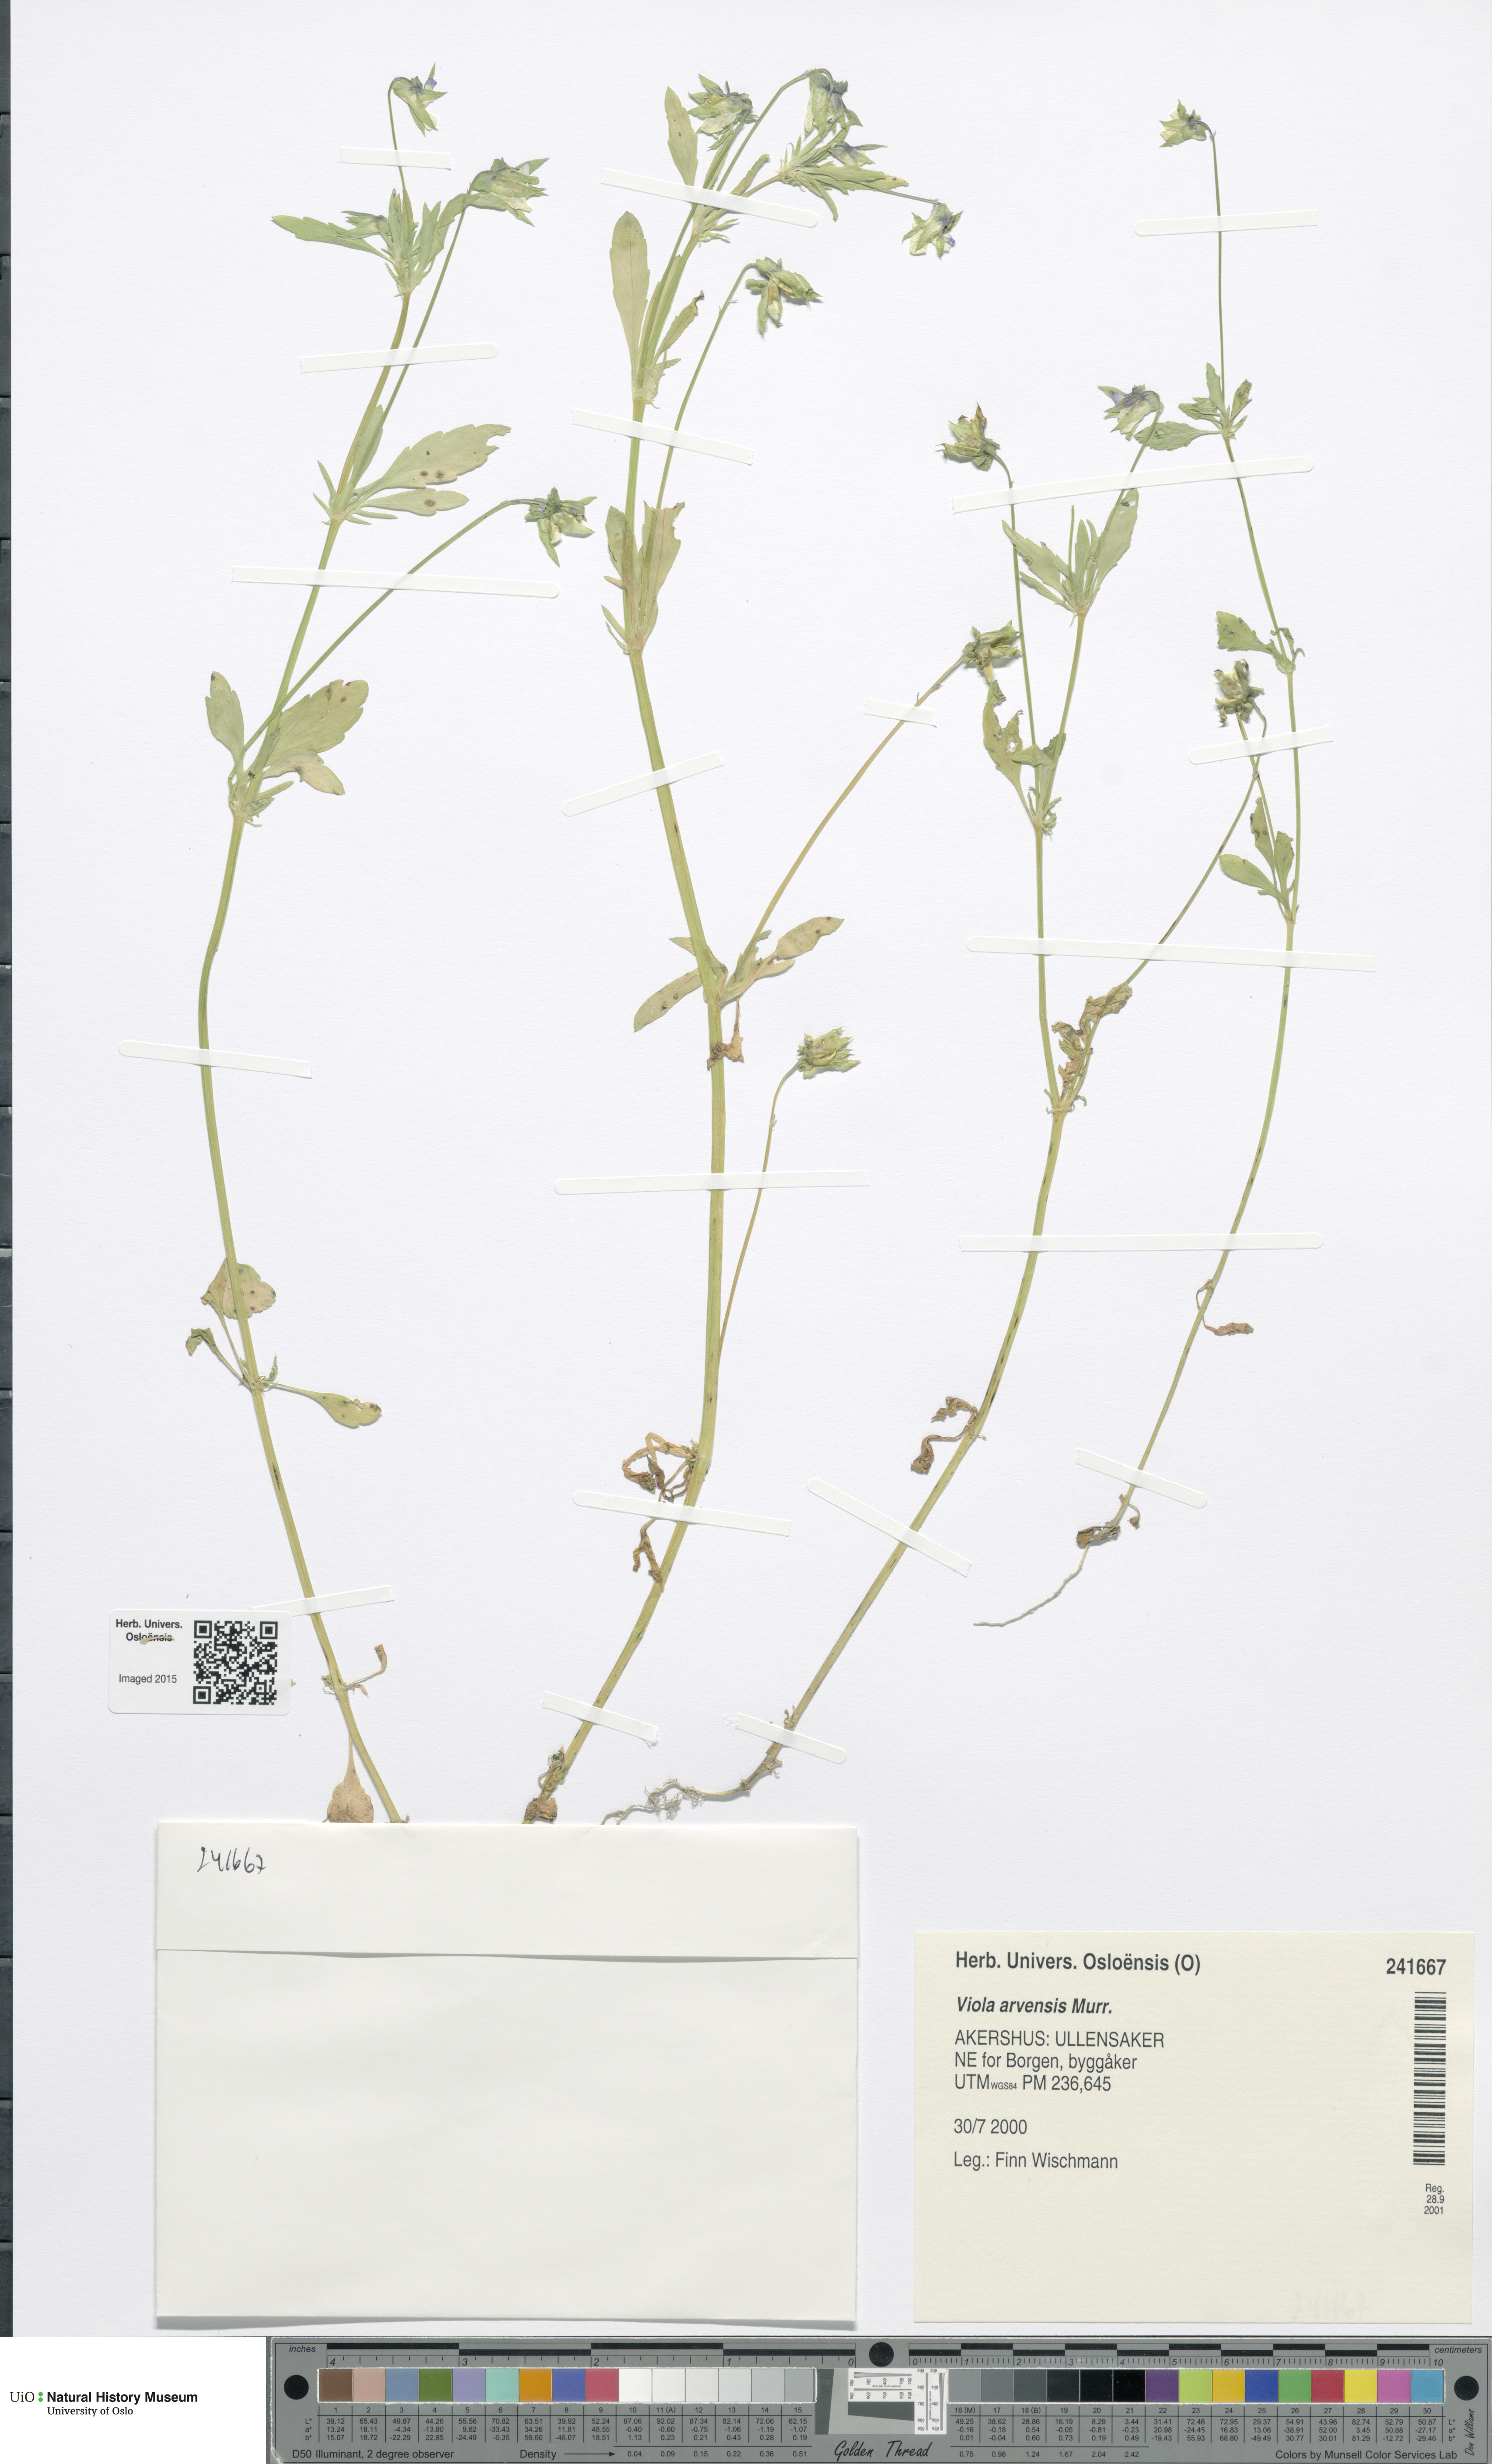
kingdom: Plantae
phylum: Tracheophyta
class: Magnoliopsida
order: Malpighiales
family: Violaceae
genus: Viola
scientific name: Viola arvensis
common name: Field pansy
